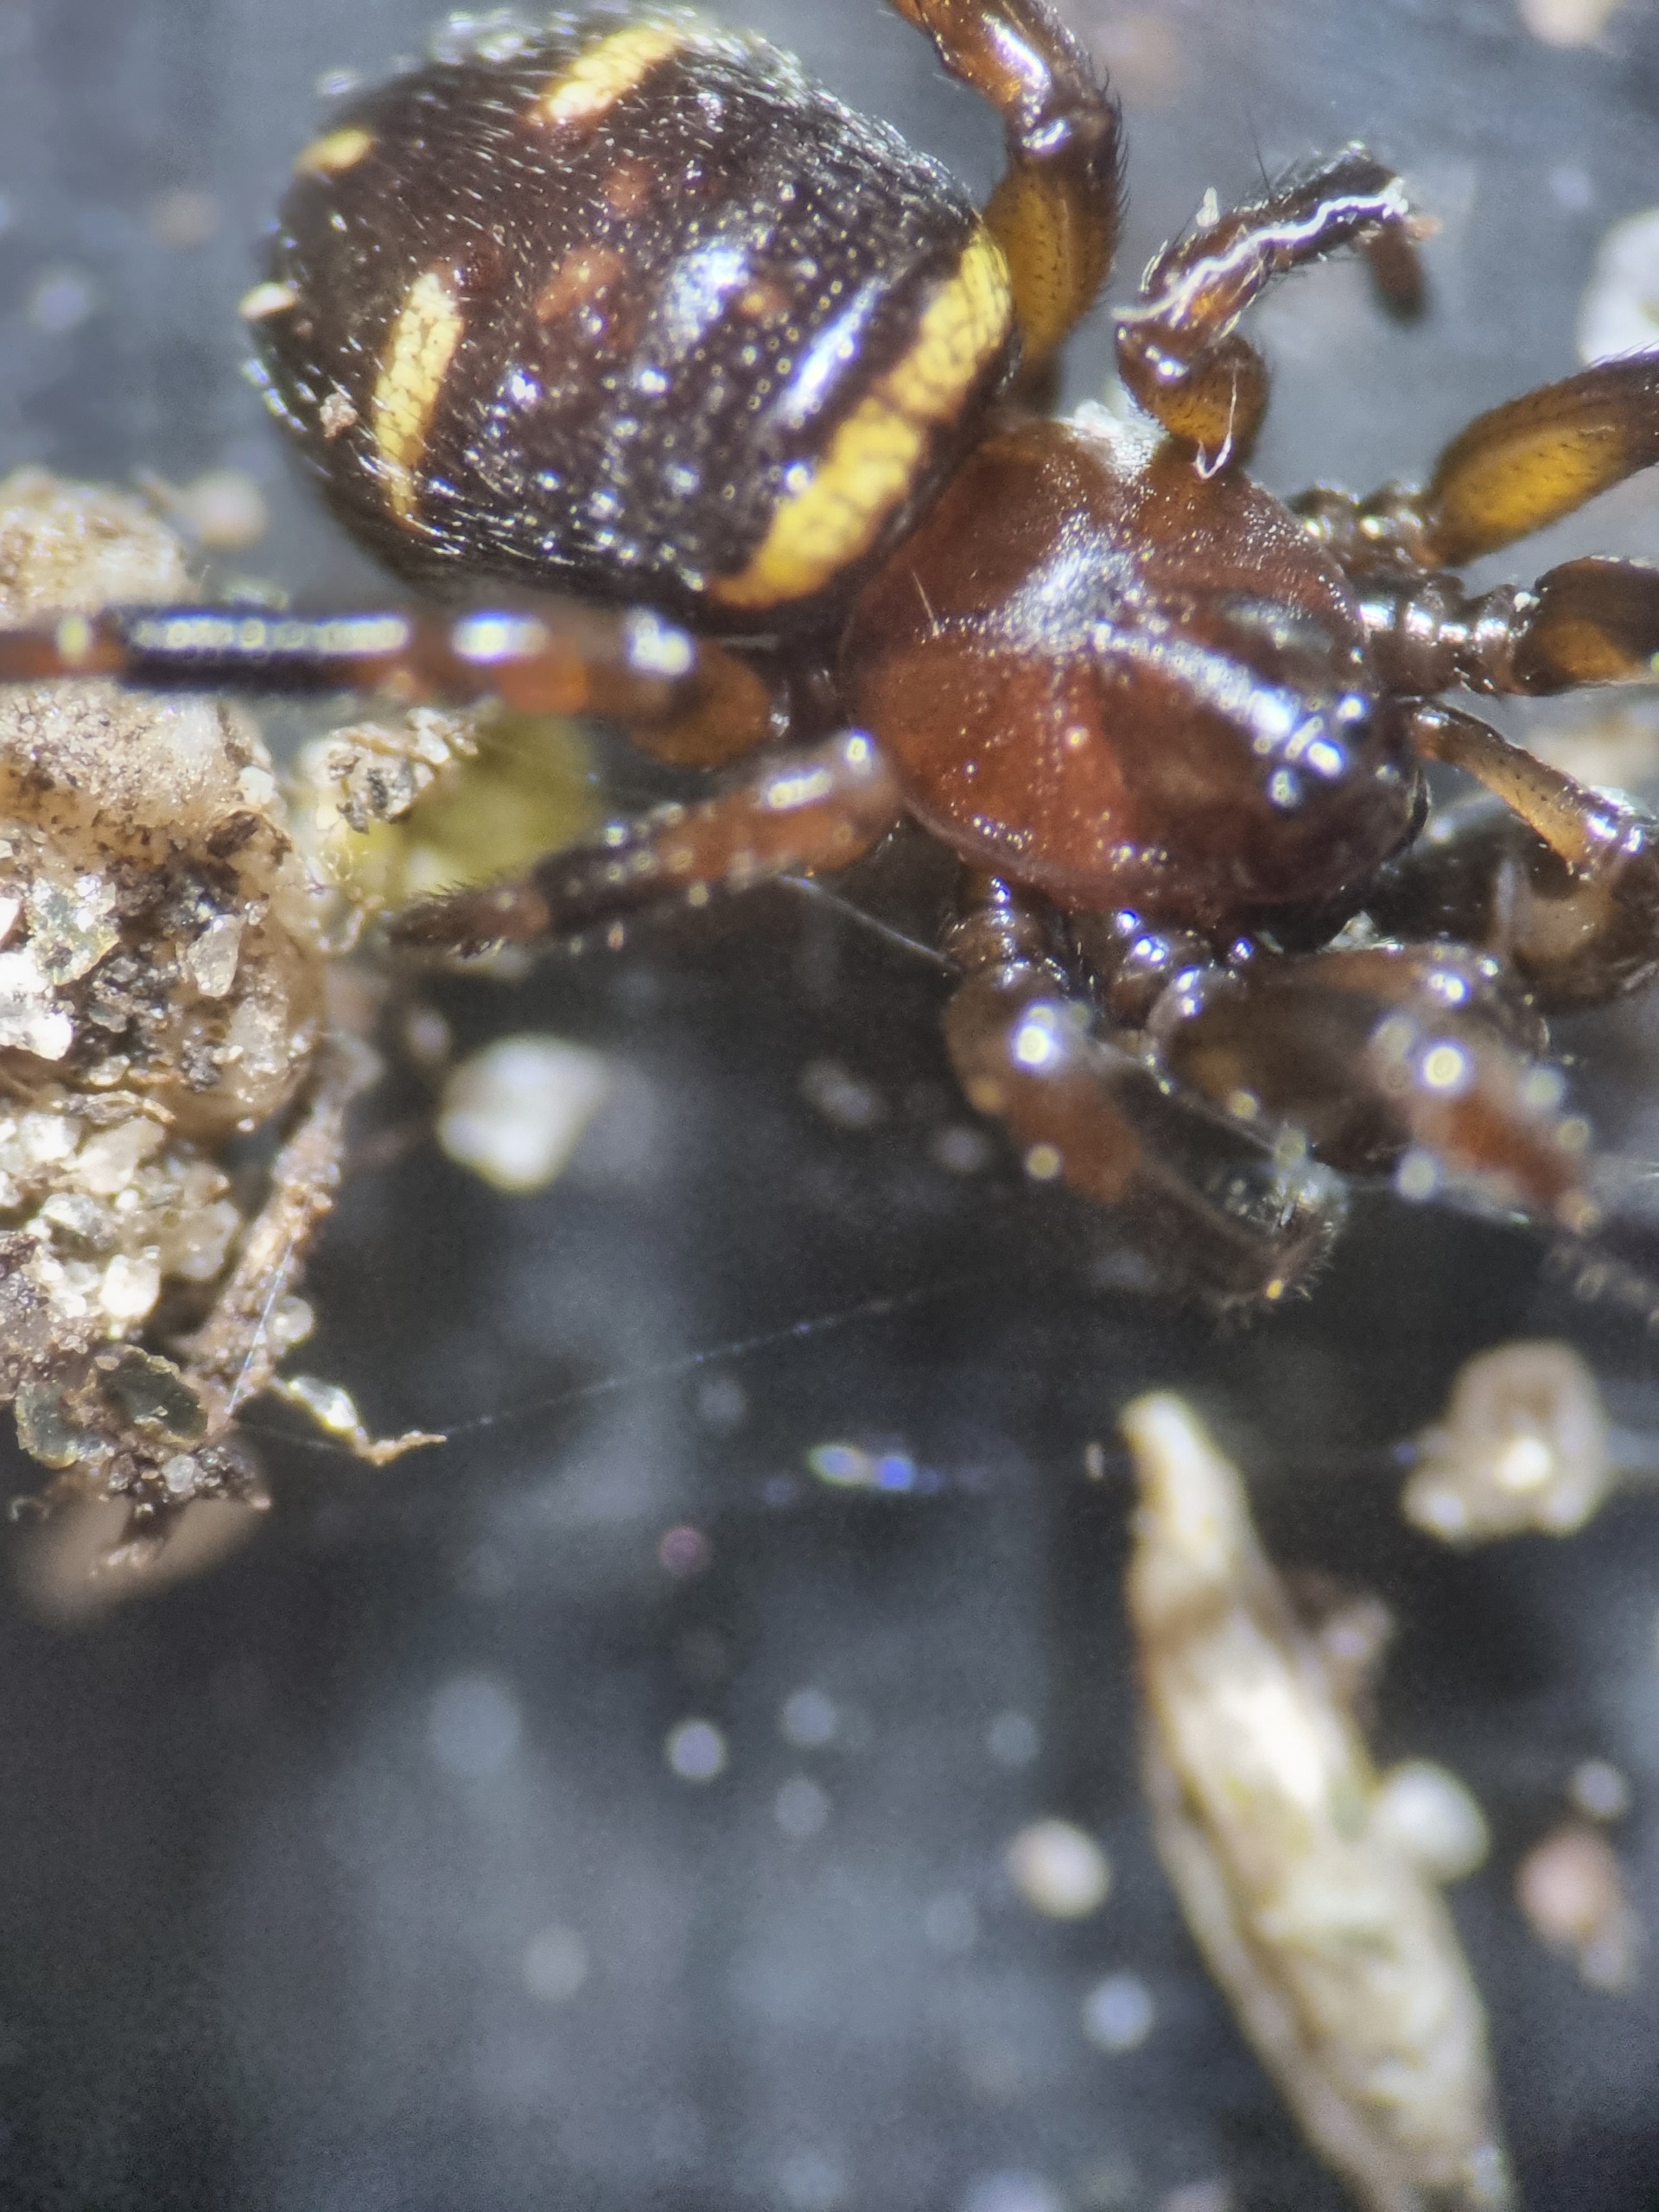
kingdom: Animalia
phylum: Arthropoda
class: Arachnida
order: Araneae
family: Theridiidae
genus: Asagena
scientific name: Asagena phalerata
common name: Smuk voksedderkop
